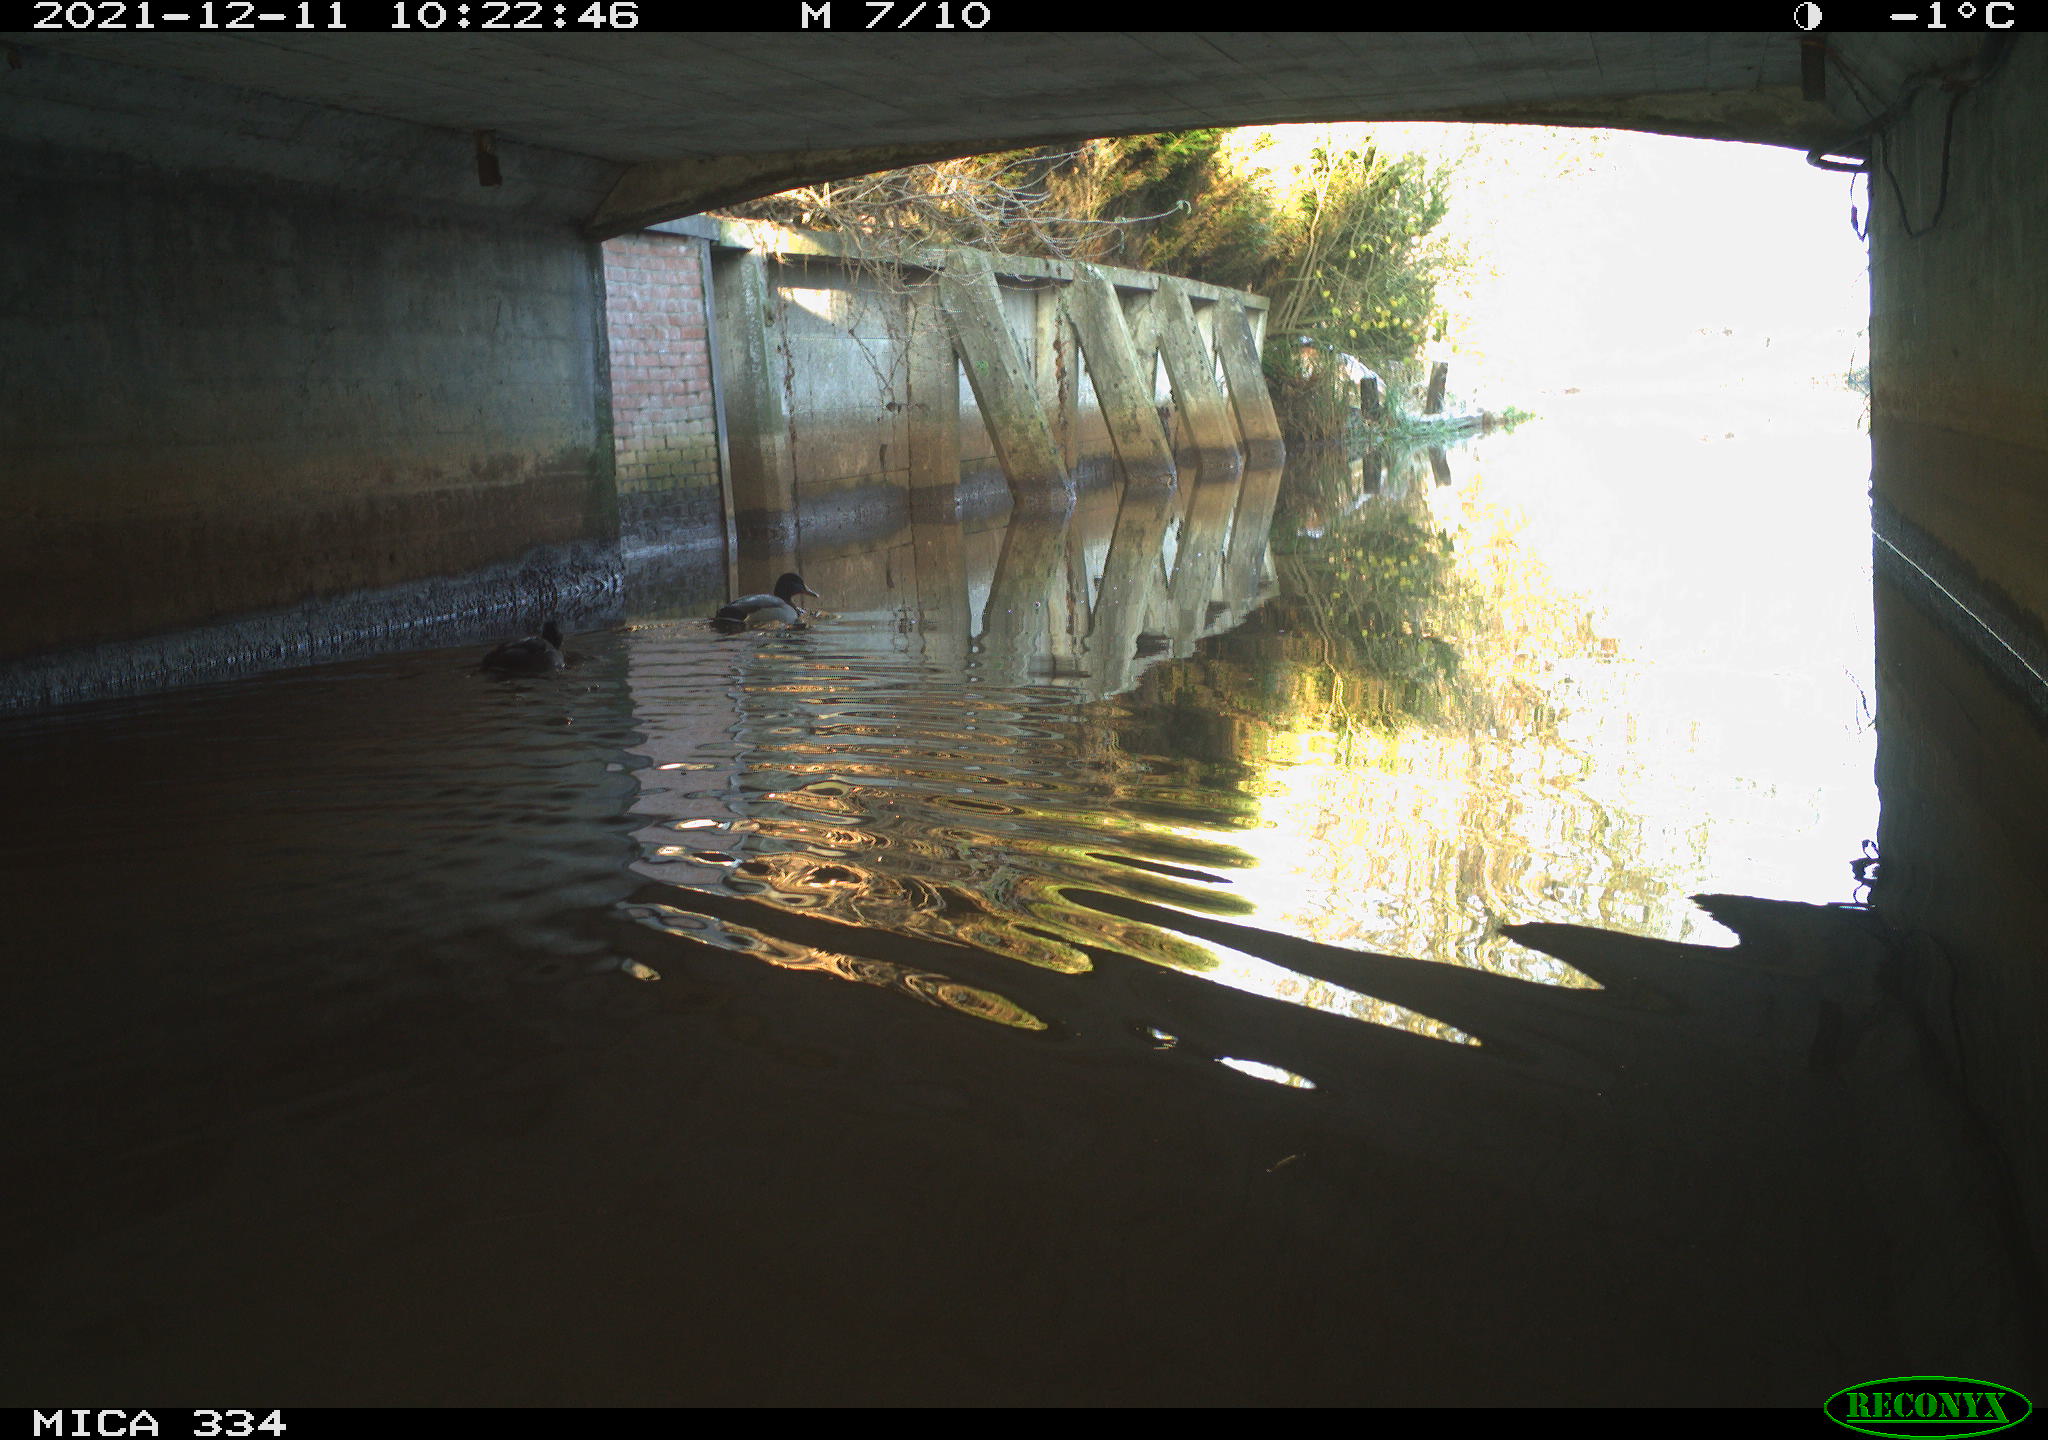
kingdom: Animalia
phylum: Chordata
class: Aves
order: Anseriformes
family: Anatidae
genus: Anas
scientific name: Anas platyrhynchos
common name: Mallard
